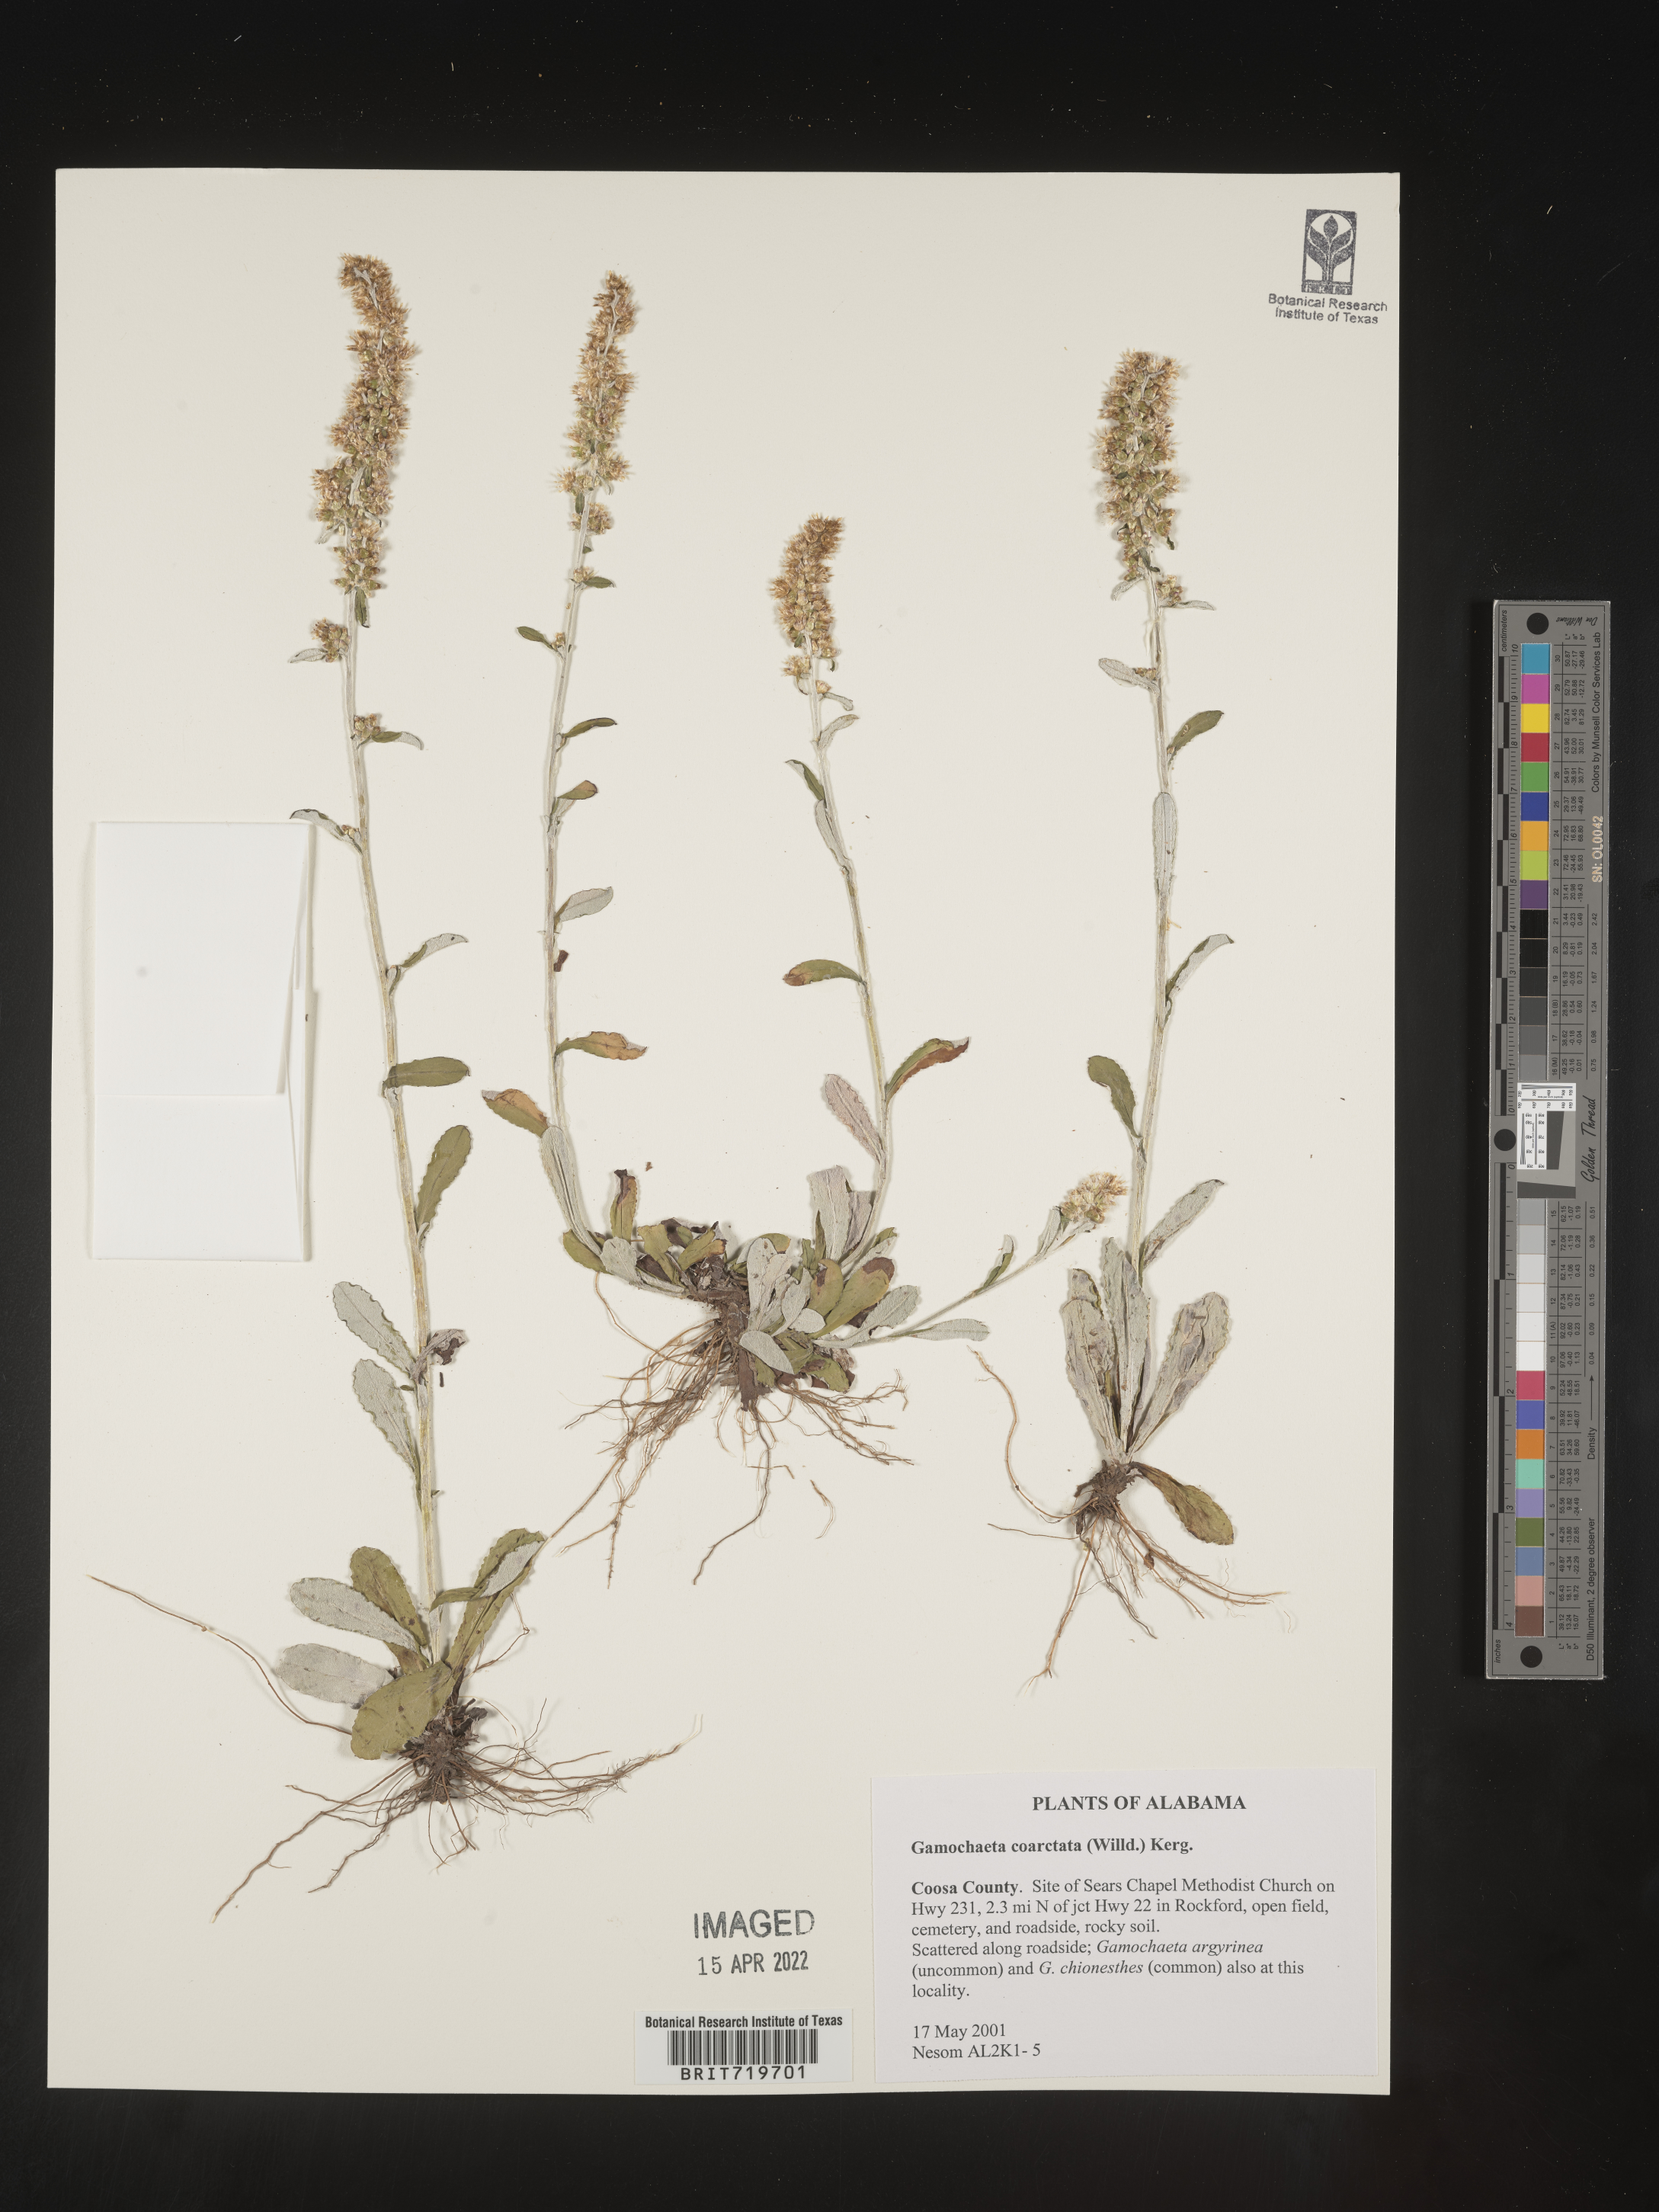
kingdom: Plantae
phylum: Tracheophyta
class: Magnoliopsida
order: Asterales
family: Asteraceae
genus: Gamochaeta
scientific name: Gamochaeta americana
